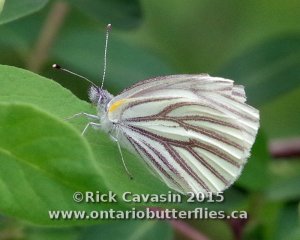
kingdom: Animalia
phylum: Arthropoda
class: Insecta
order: Lepidoptera
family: Pieridae
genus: Pieris
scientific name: Pieris oleracea
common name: Mustard White
